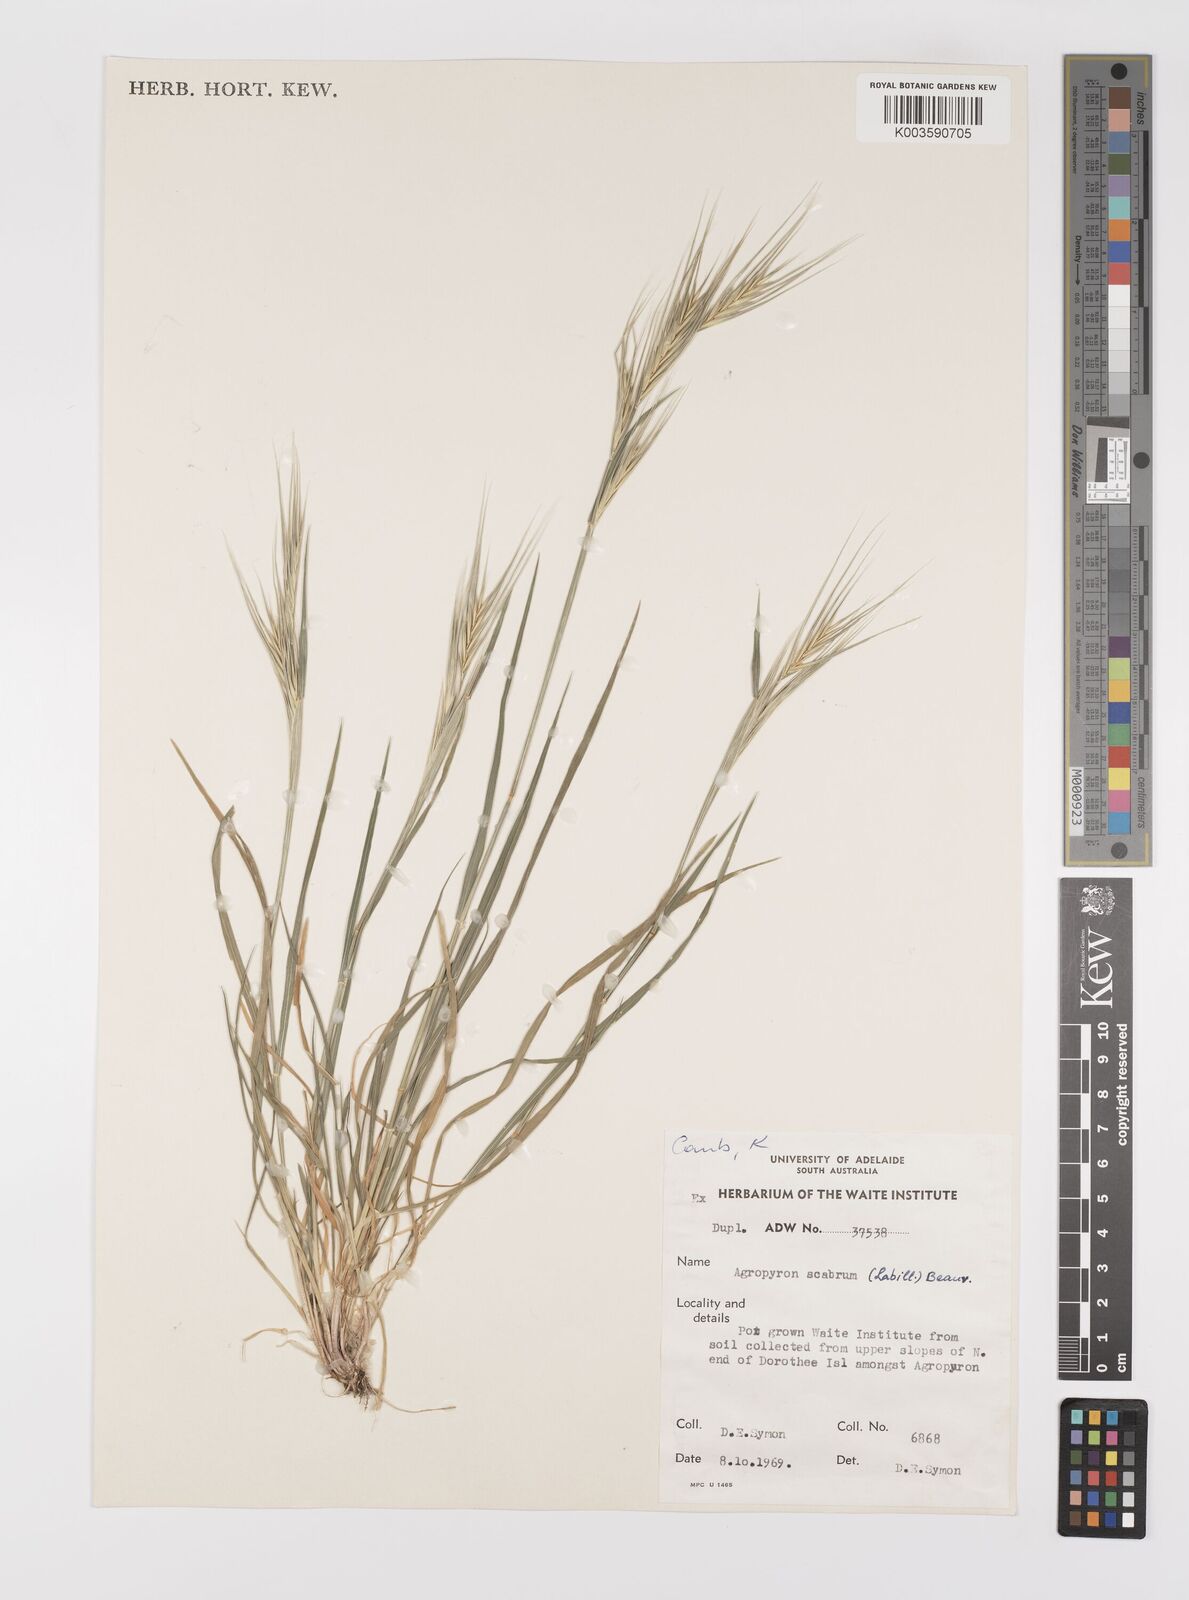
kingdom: Plantae
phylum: Tracheophyta
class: Liliopsida
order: Poales
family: Poaceae
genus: Elymus
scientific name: Elymus
